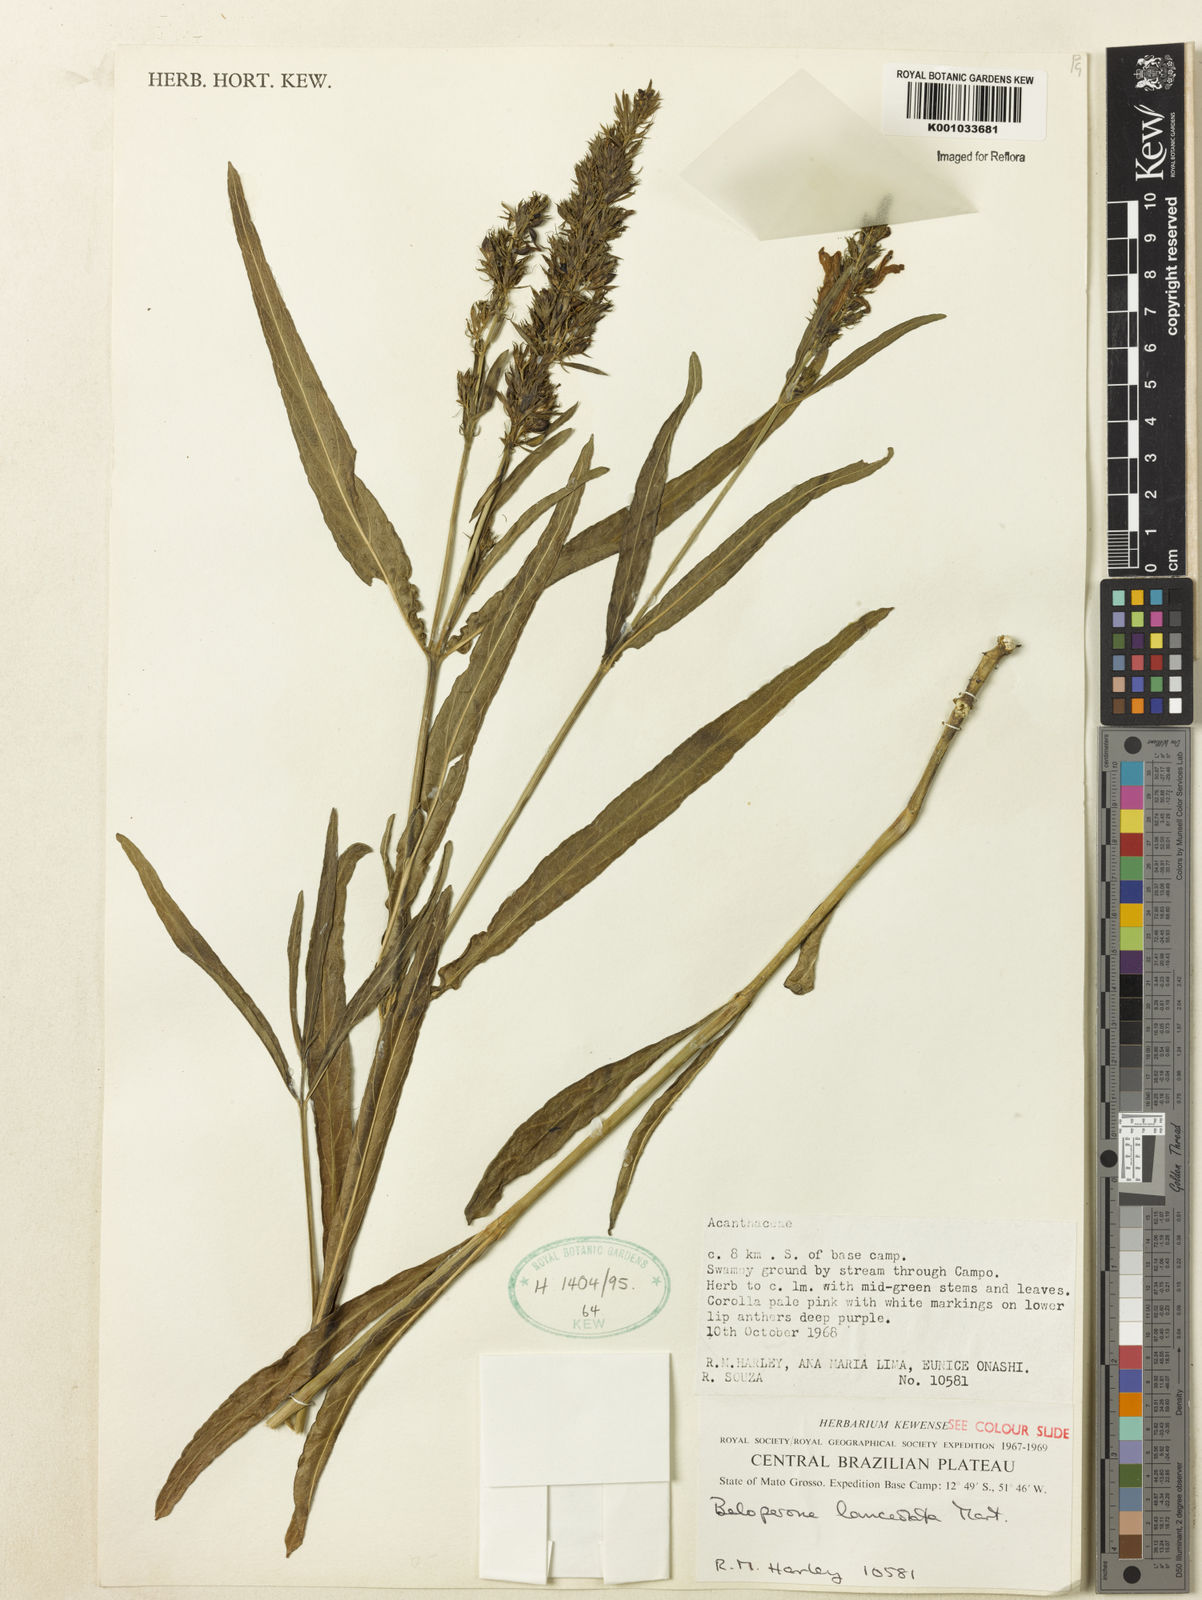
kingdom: Plantae
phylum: Tracheophyta
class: Magnoliopsida
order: Lamiales
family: Acanthaceae
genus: Justicia
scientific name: Justicia
